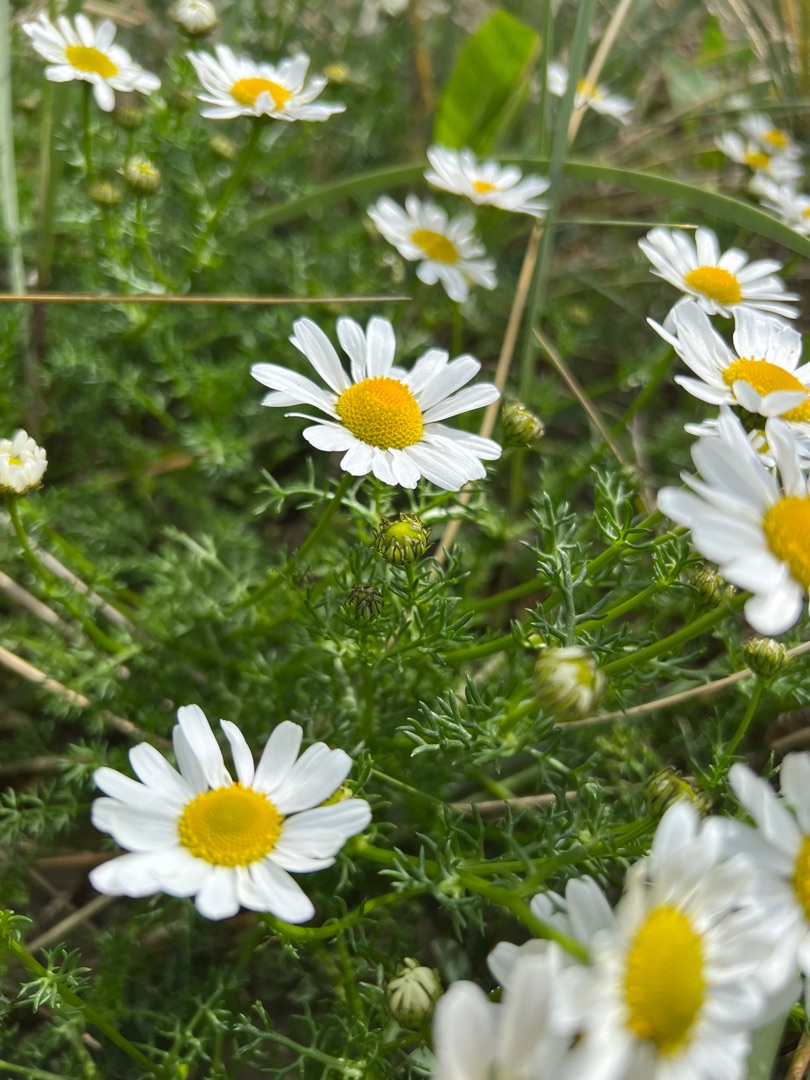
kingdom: Plantae
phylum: Tracheophyta
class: Magnoliopsida
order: Asterales
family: Asteraceae
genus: Tripleurospermum
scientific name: Tripleurospermum maritimum
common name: Strand-kamille
